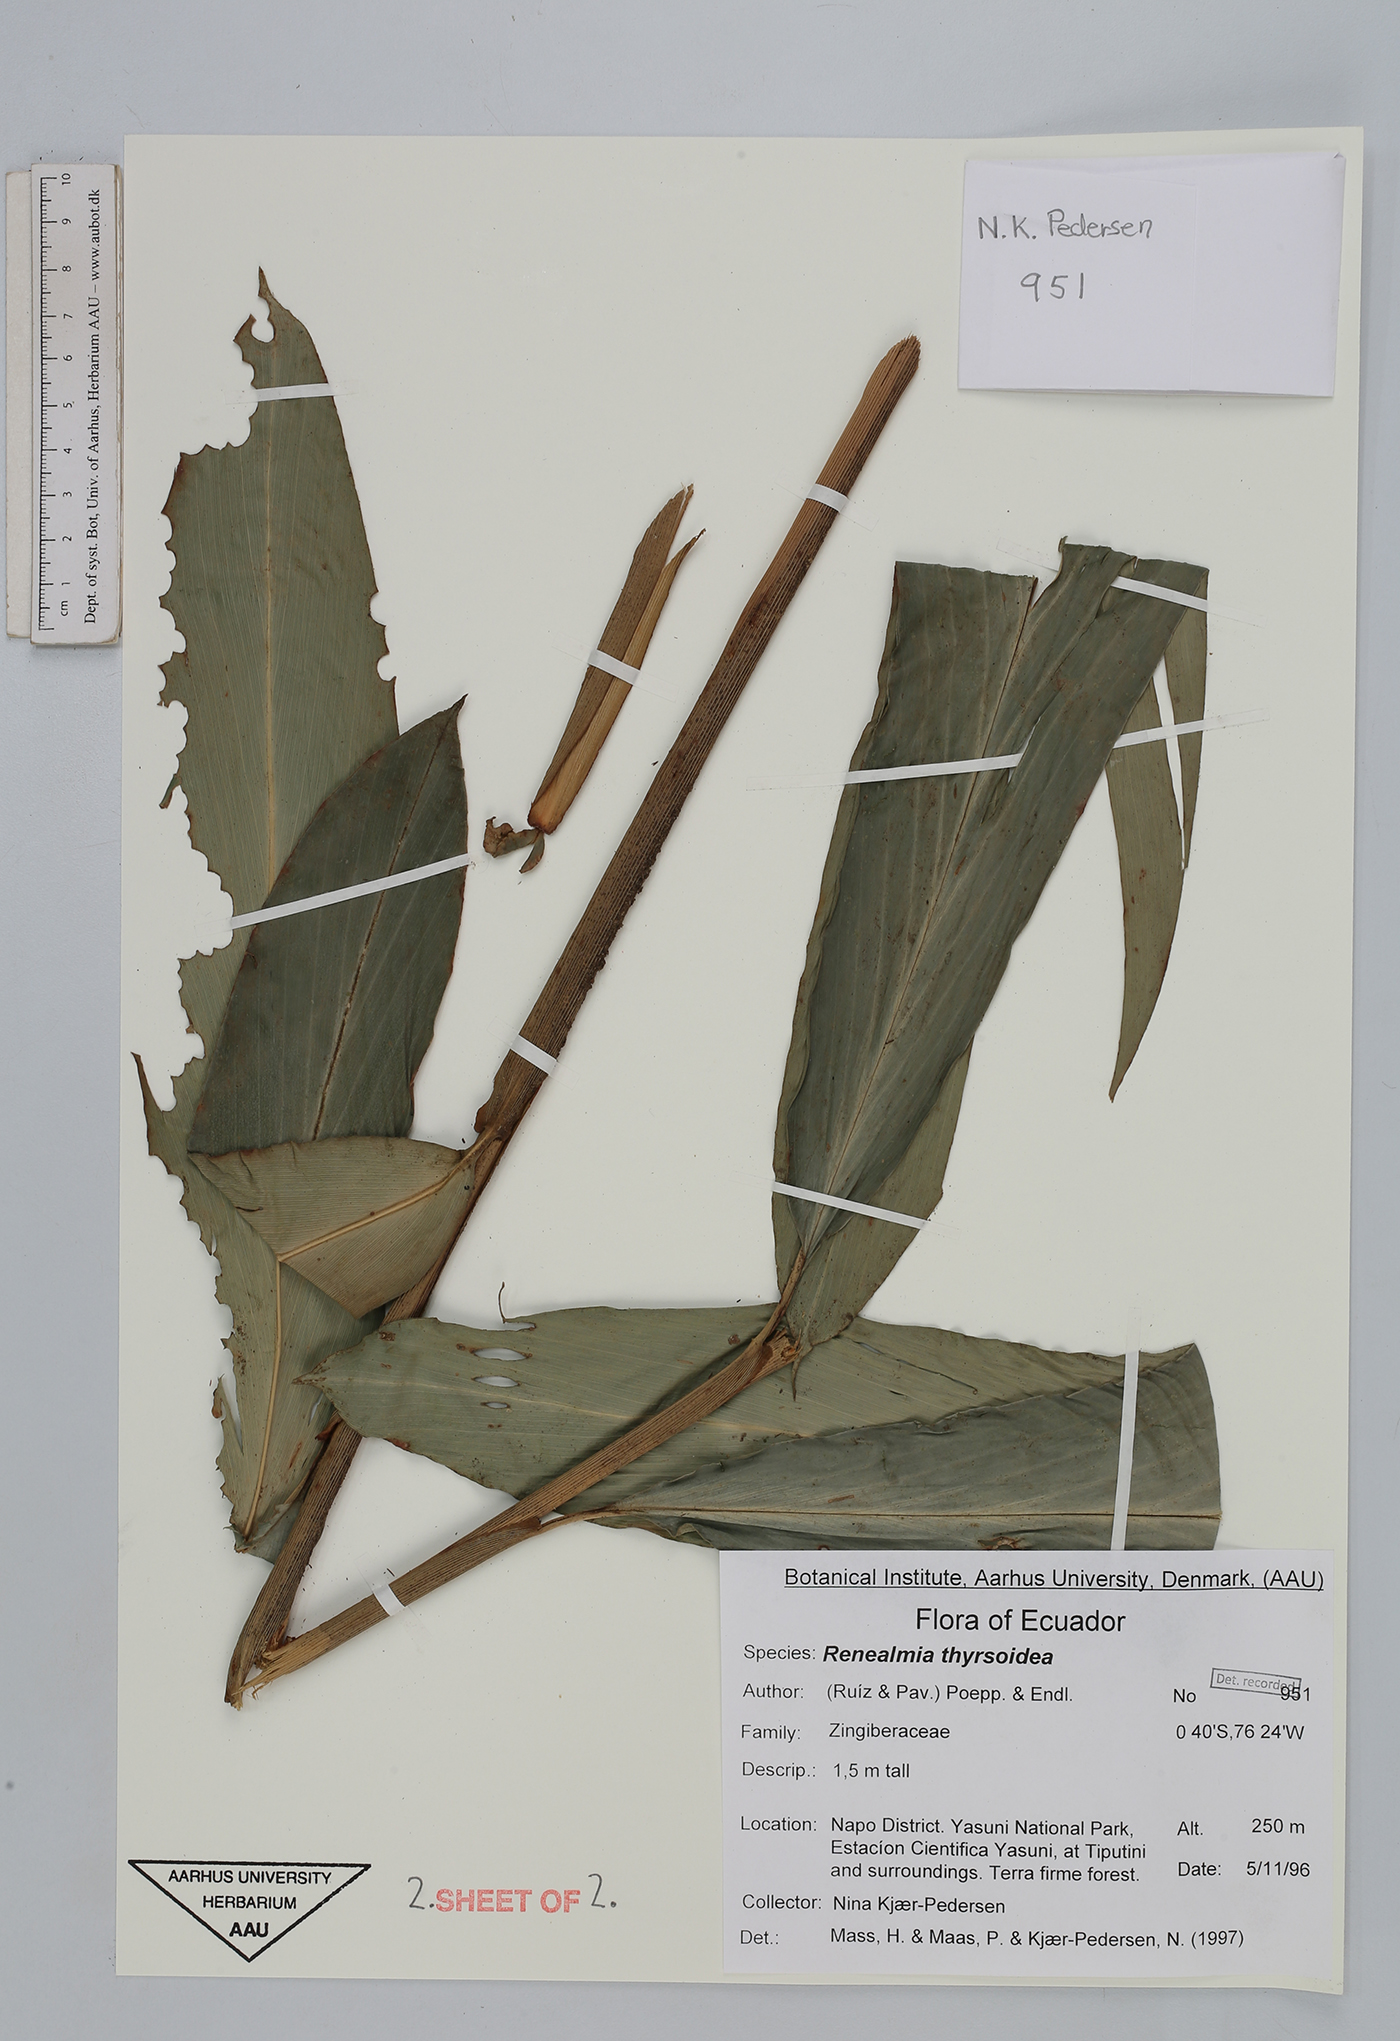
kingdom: Plantae
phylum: Tracheophyta
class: Liliopsida
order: Zingiberales
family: Zingiberaceae
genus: Renealmia
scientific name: Renealmia thyrsoidea
